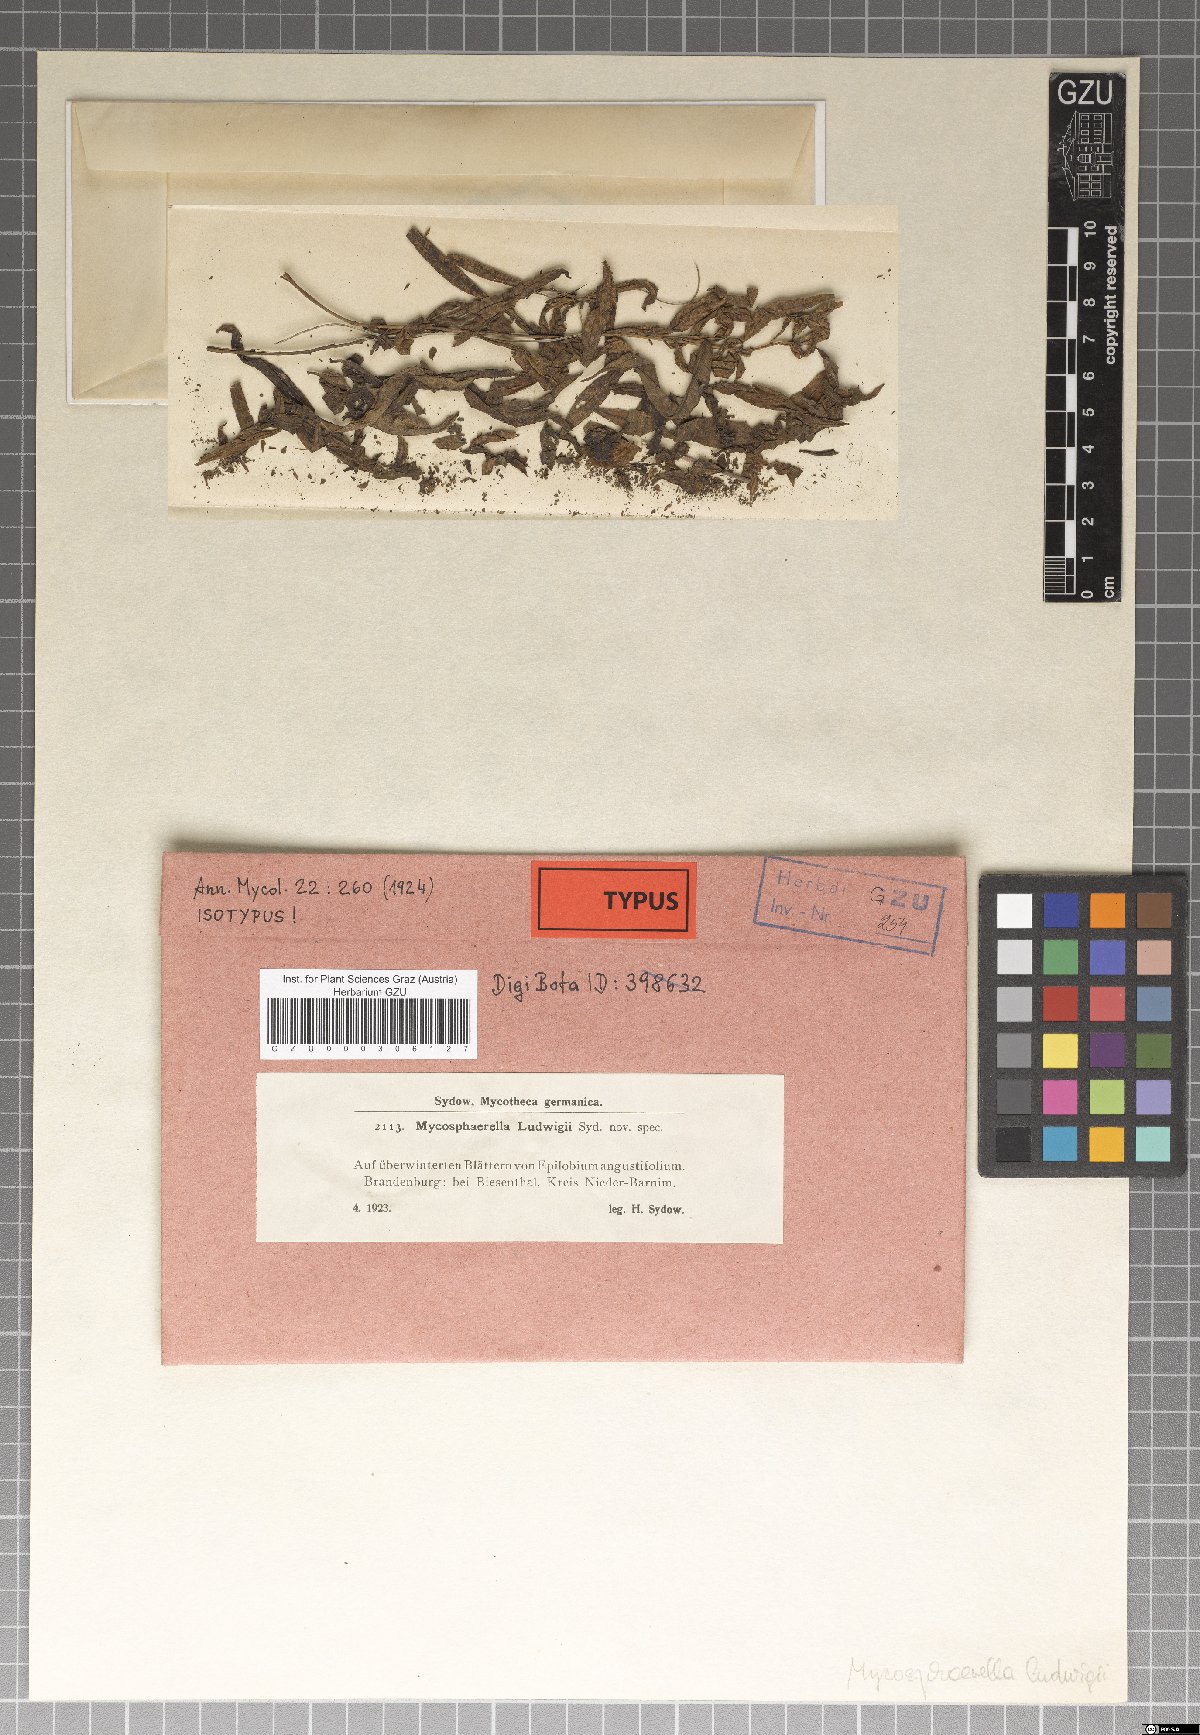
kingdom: Fungi
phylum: Ascomycota
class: Dothideomycetes
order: Mycosphaerellales
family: Mycosphaerellaceae
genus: Mycosphaerella
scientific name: Mycosphaerella ludwigii
